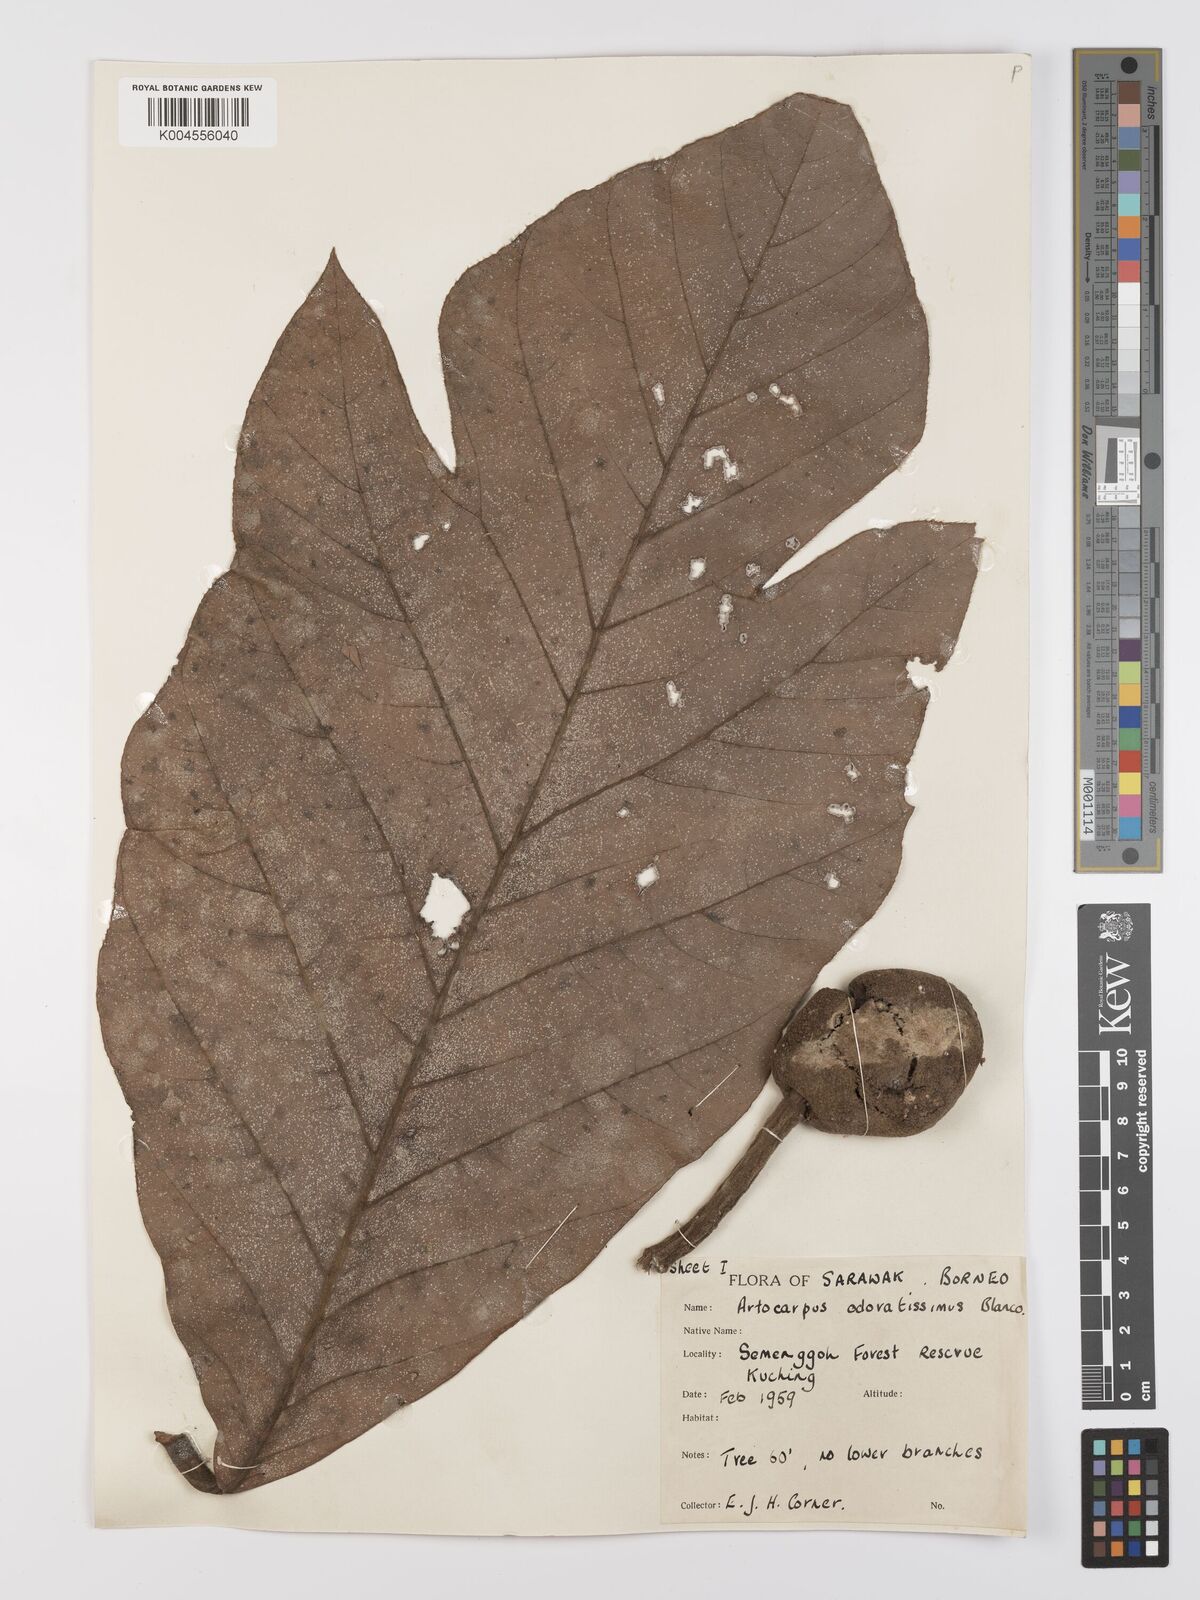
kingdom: Plantae
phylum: Tracheophyta
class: Magnoliopsida
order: Rosales
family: Moraceae
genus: Artocarpus
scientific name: Artocarpus odoratissimus
